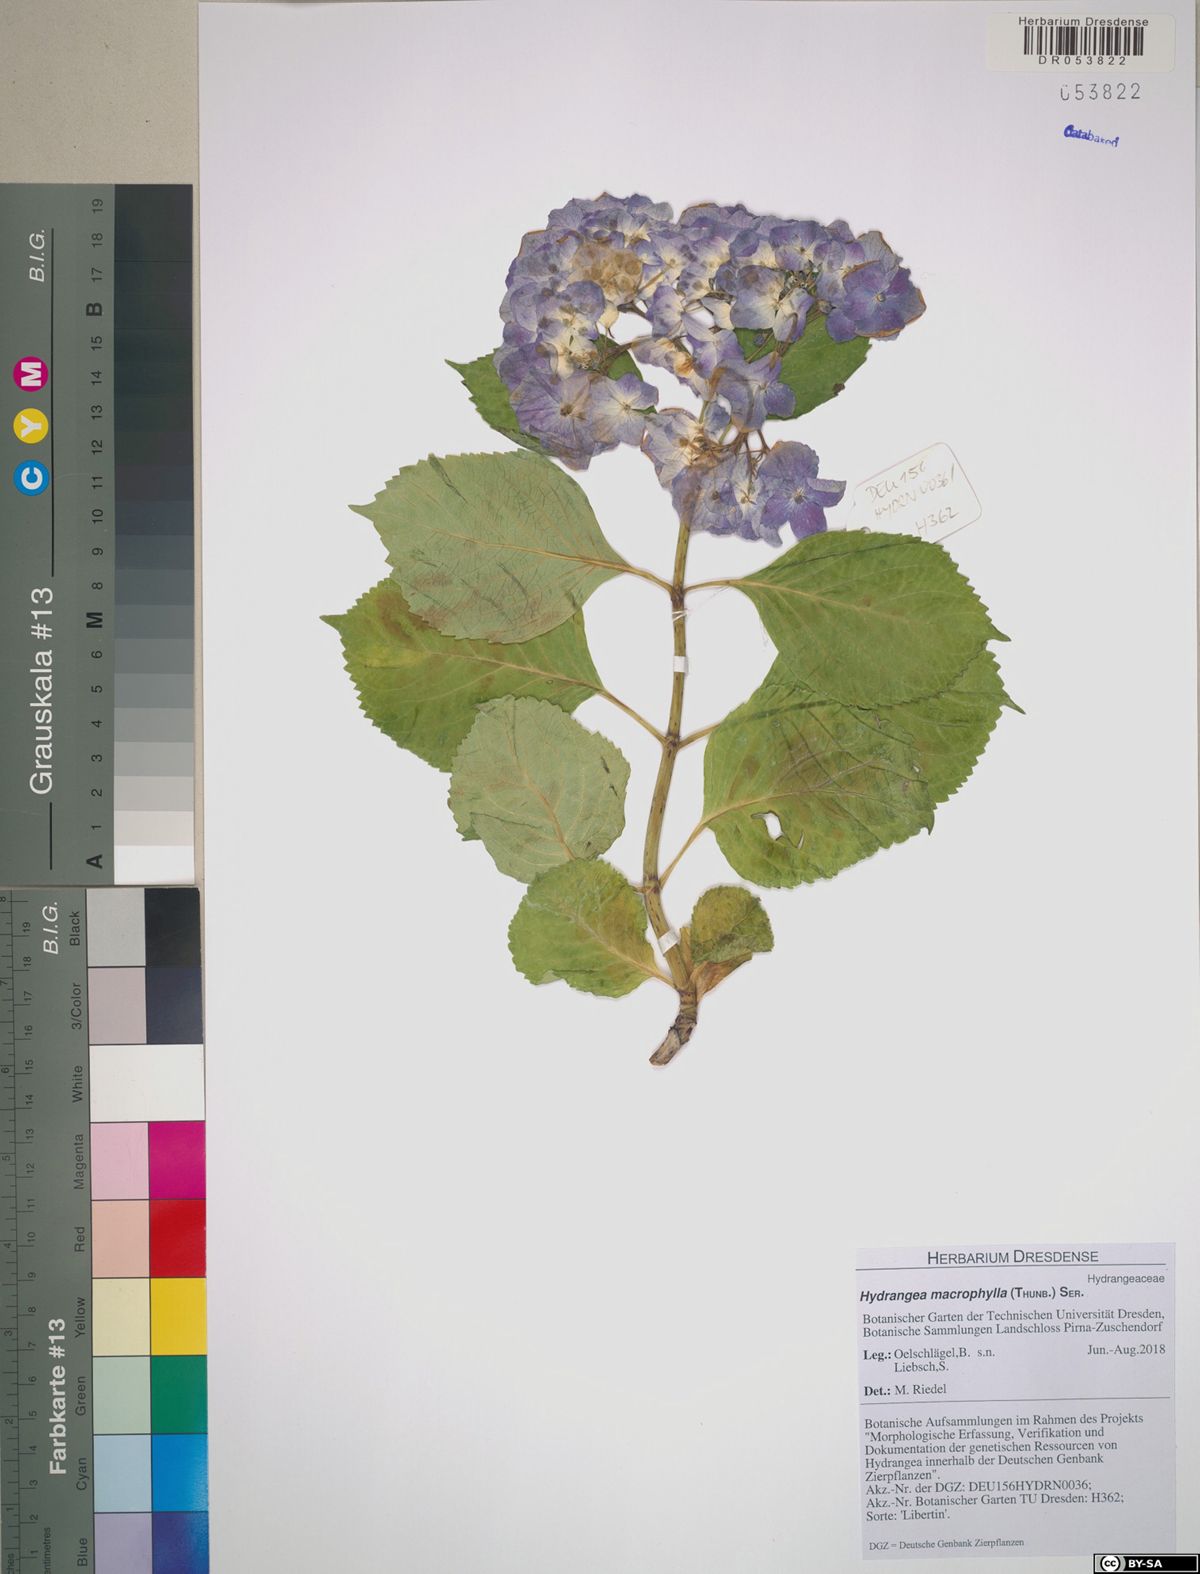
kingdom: Plantae
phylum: Tracheophyta
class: Magnoliopsida
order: Cornales
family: Hydrangeaceae
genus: Hydrangea
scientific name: Hydrangea macrophylla
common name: Hydrangea
